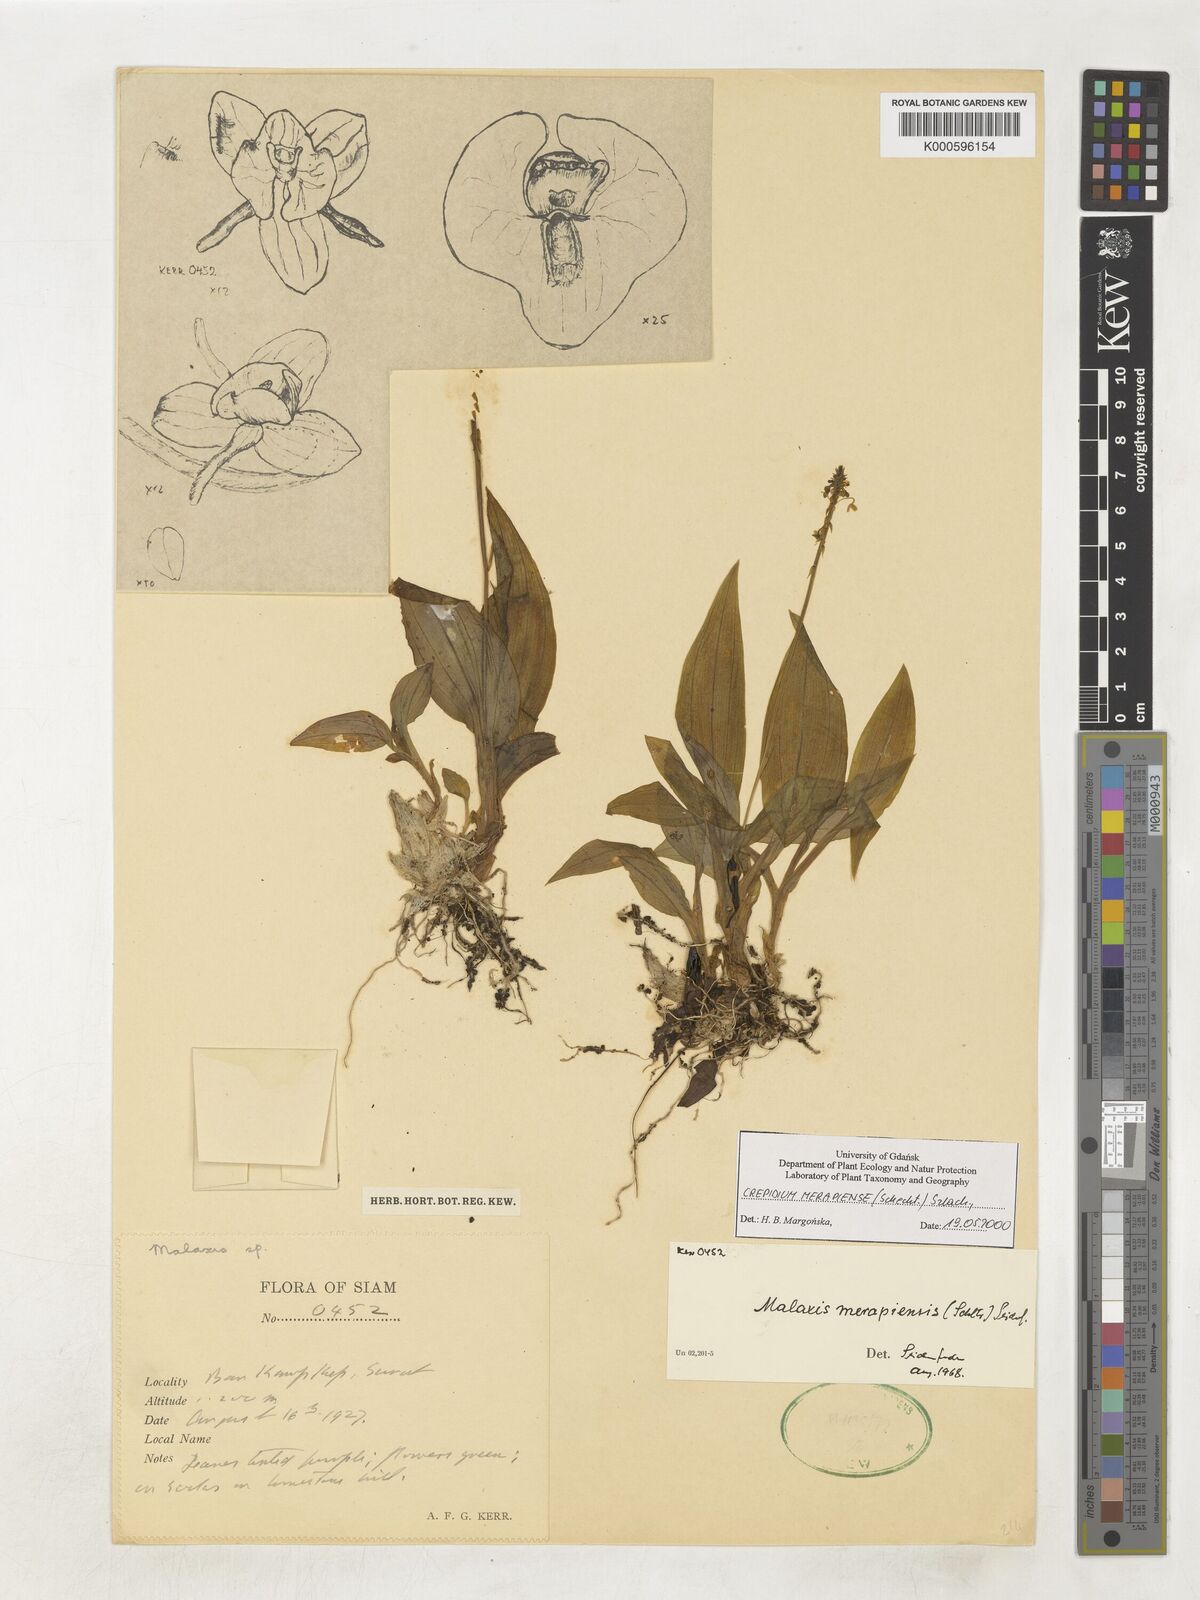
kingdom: Plantae
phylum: Tracheophyta
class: Liliopsida
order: Asparagales
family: Orchidaceae
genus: Crepidium
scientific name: Crepidium merapiense
